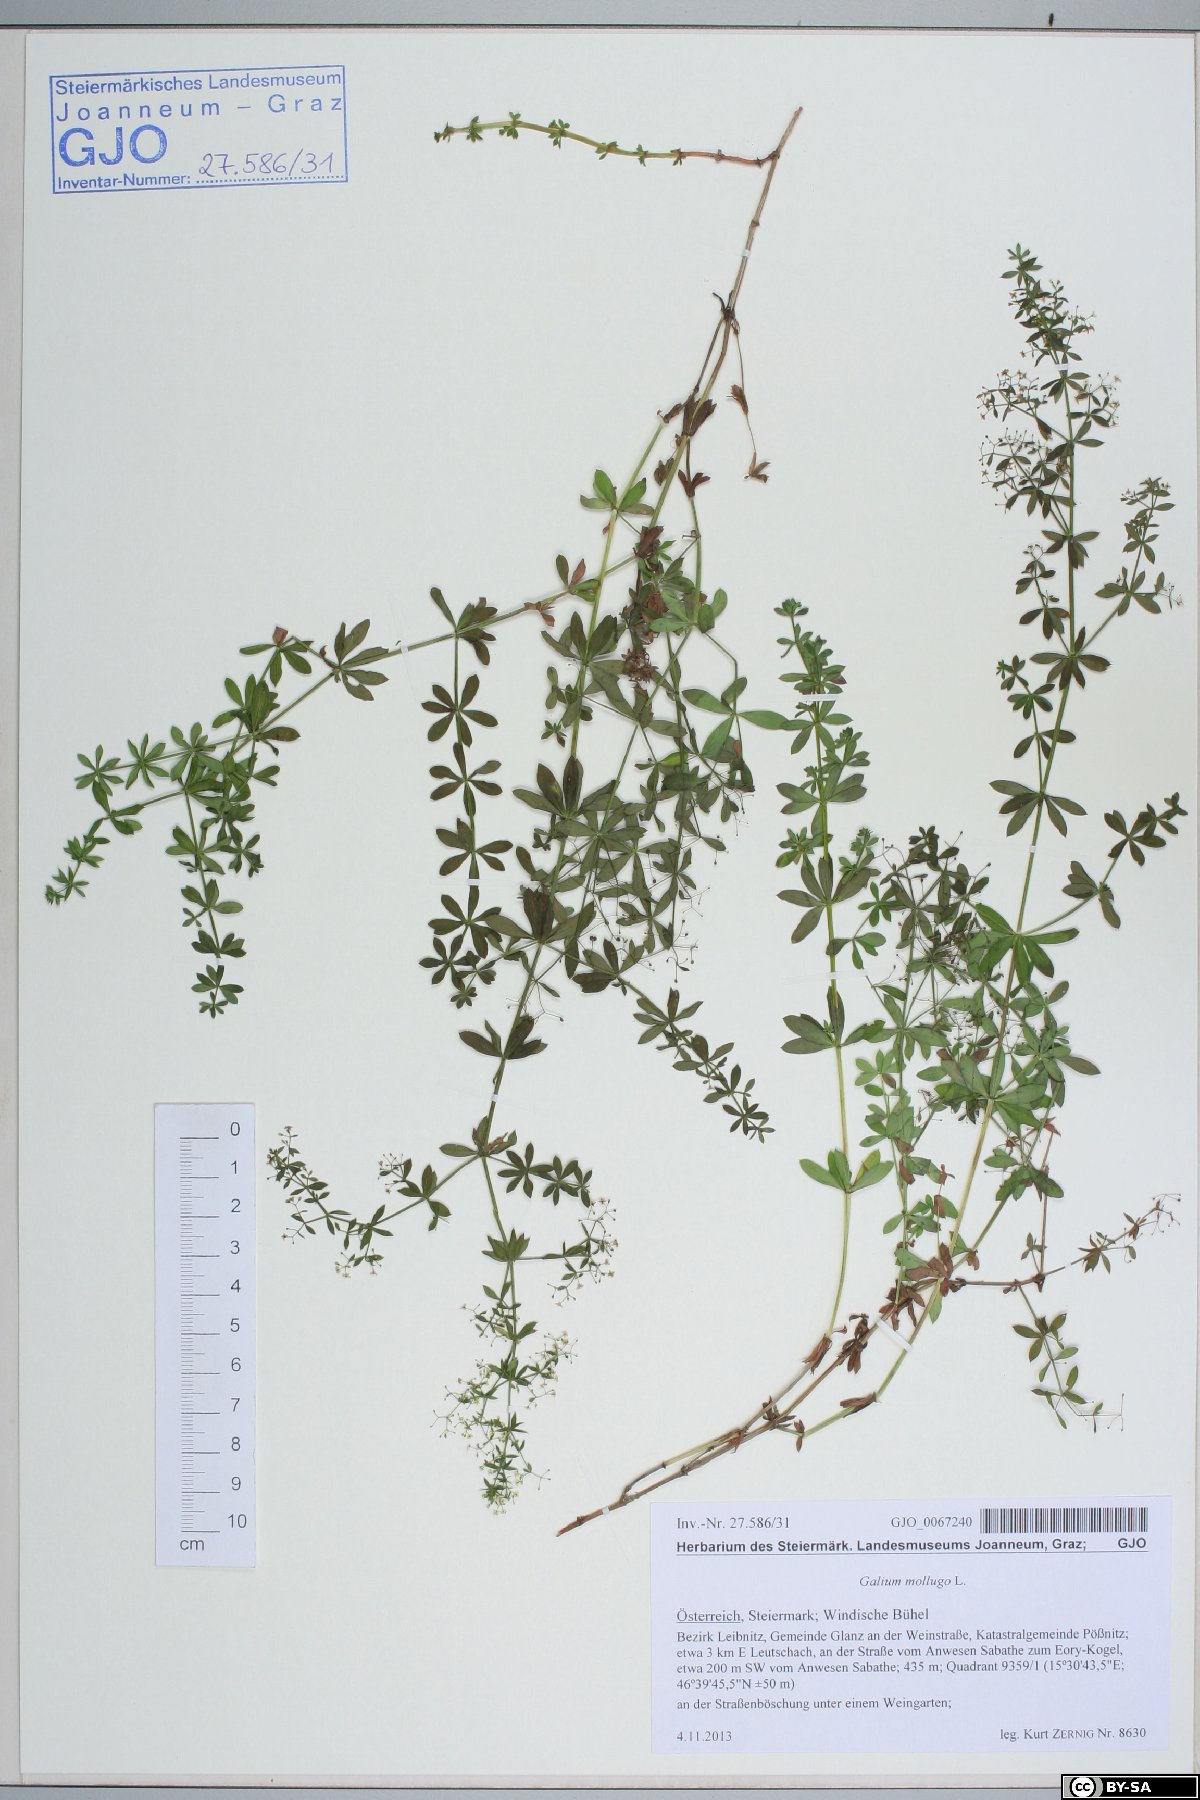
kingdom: Plantae
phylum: Tracheophyta
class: Magnoliopsida
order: Gentianales
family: Rubiaceae
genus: Galium
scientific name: Galium mollugo
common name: Hedge bedstraw
